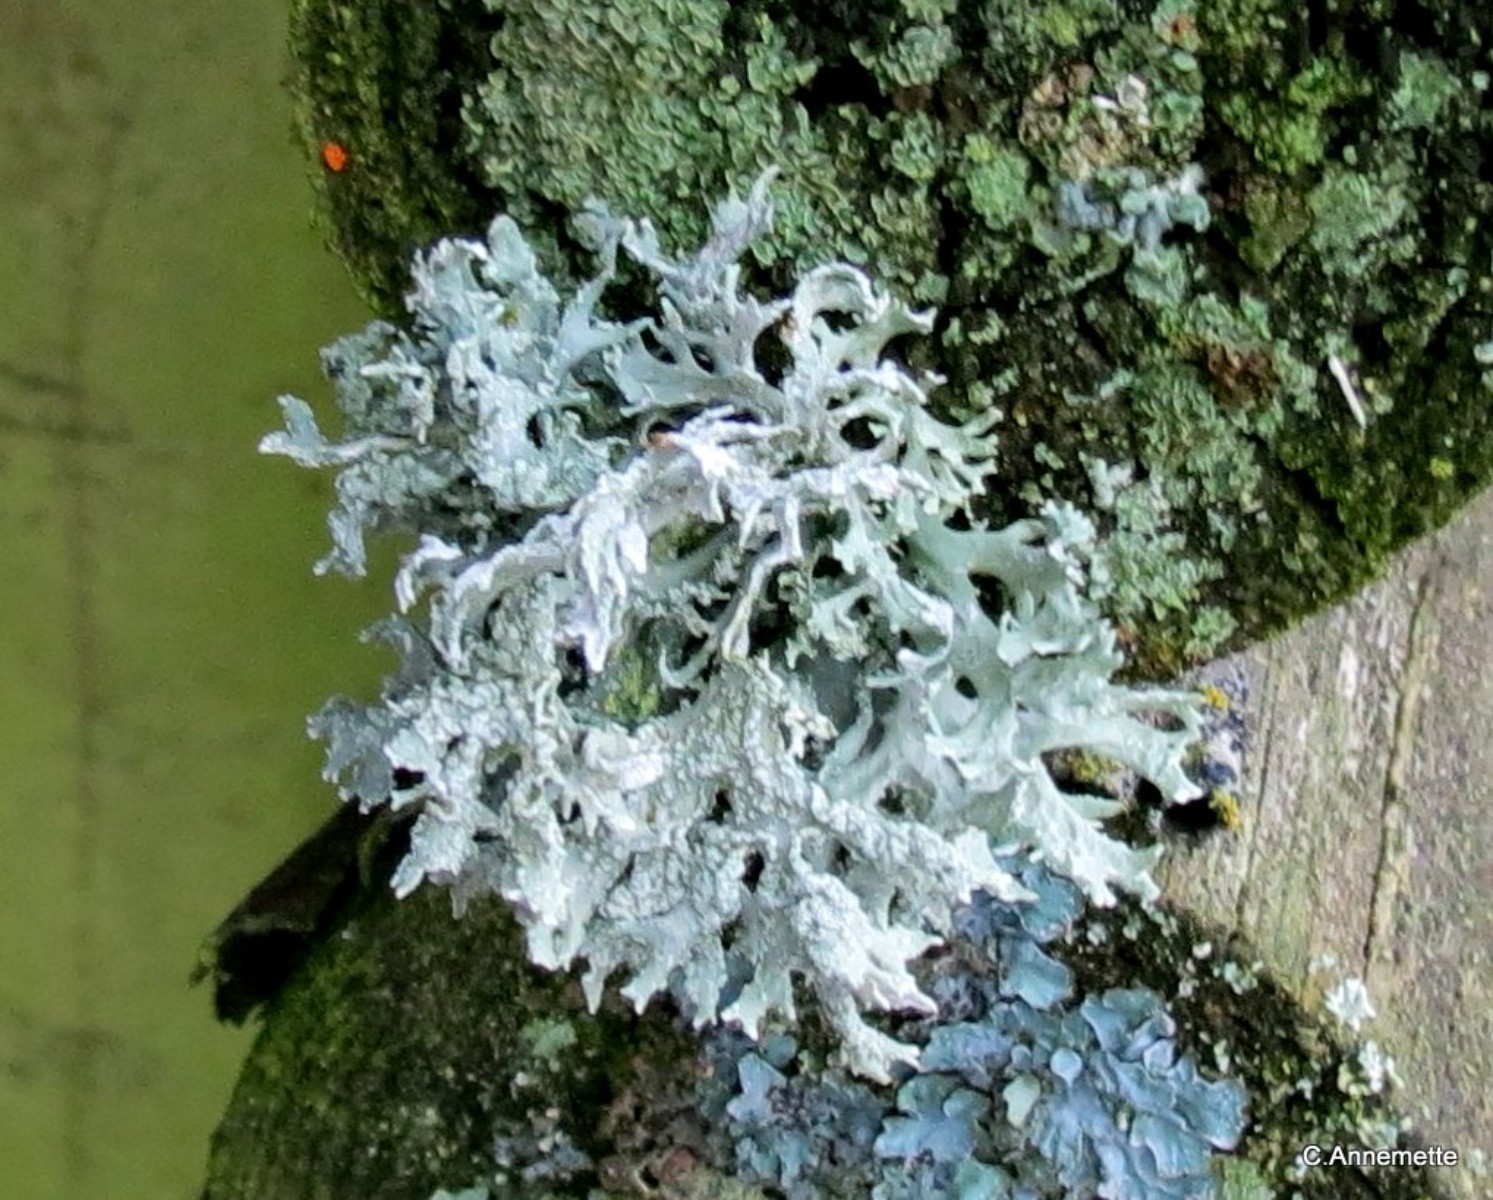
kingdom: Fungi
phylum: Ascomycota
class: Lecanoromycetes
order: Lecanorales
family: Parmeliaceae
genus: Evernia
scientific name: Evernia prunastri
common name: almindelig slåenlav
